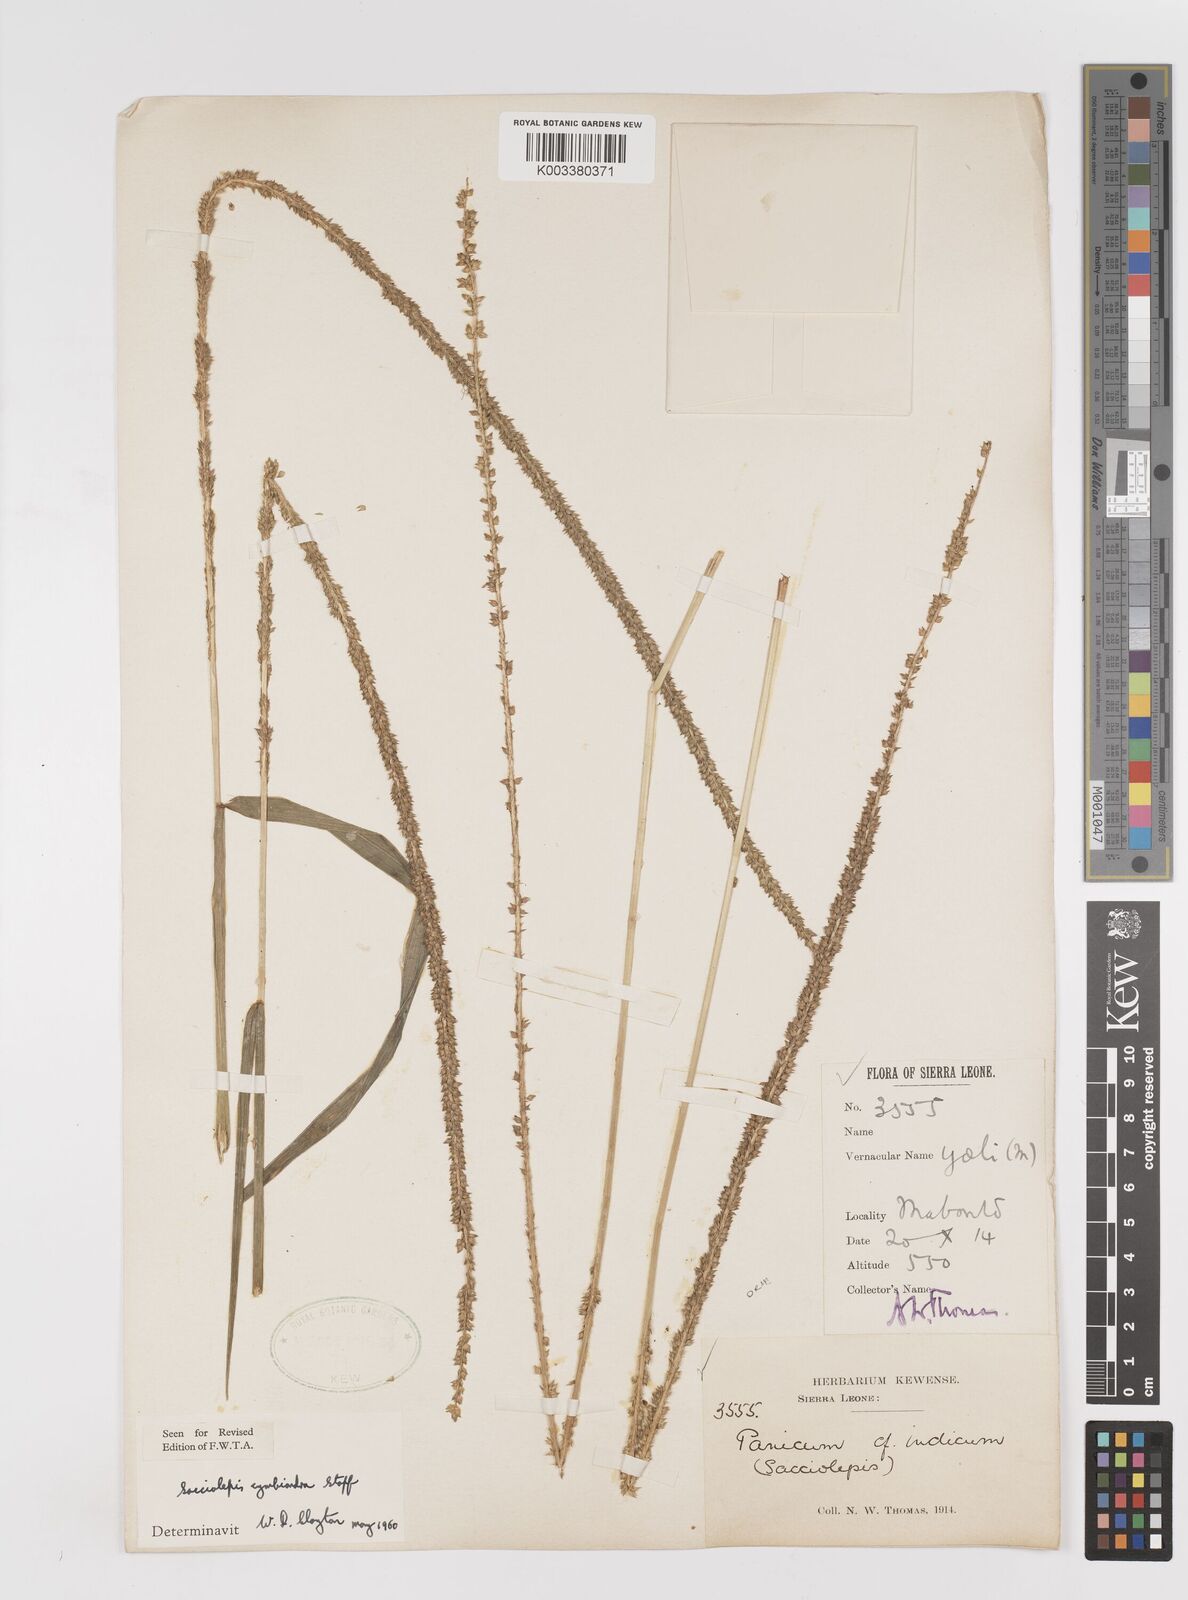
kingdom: Plantae
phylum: Tracheophyta
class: Liliopsida
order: Poales
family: Poaceae
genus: Sacciolepis
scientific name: Sacciolepis cymbiandra
